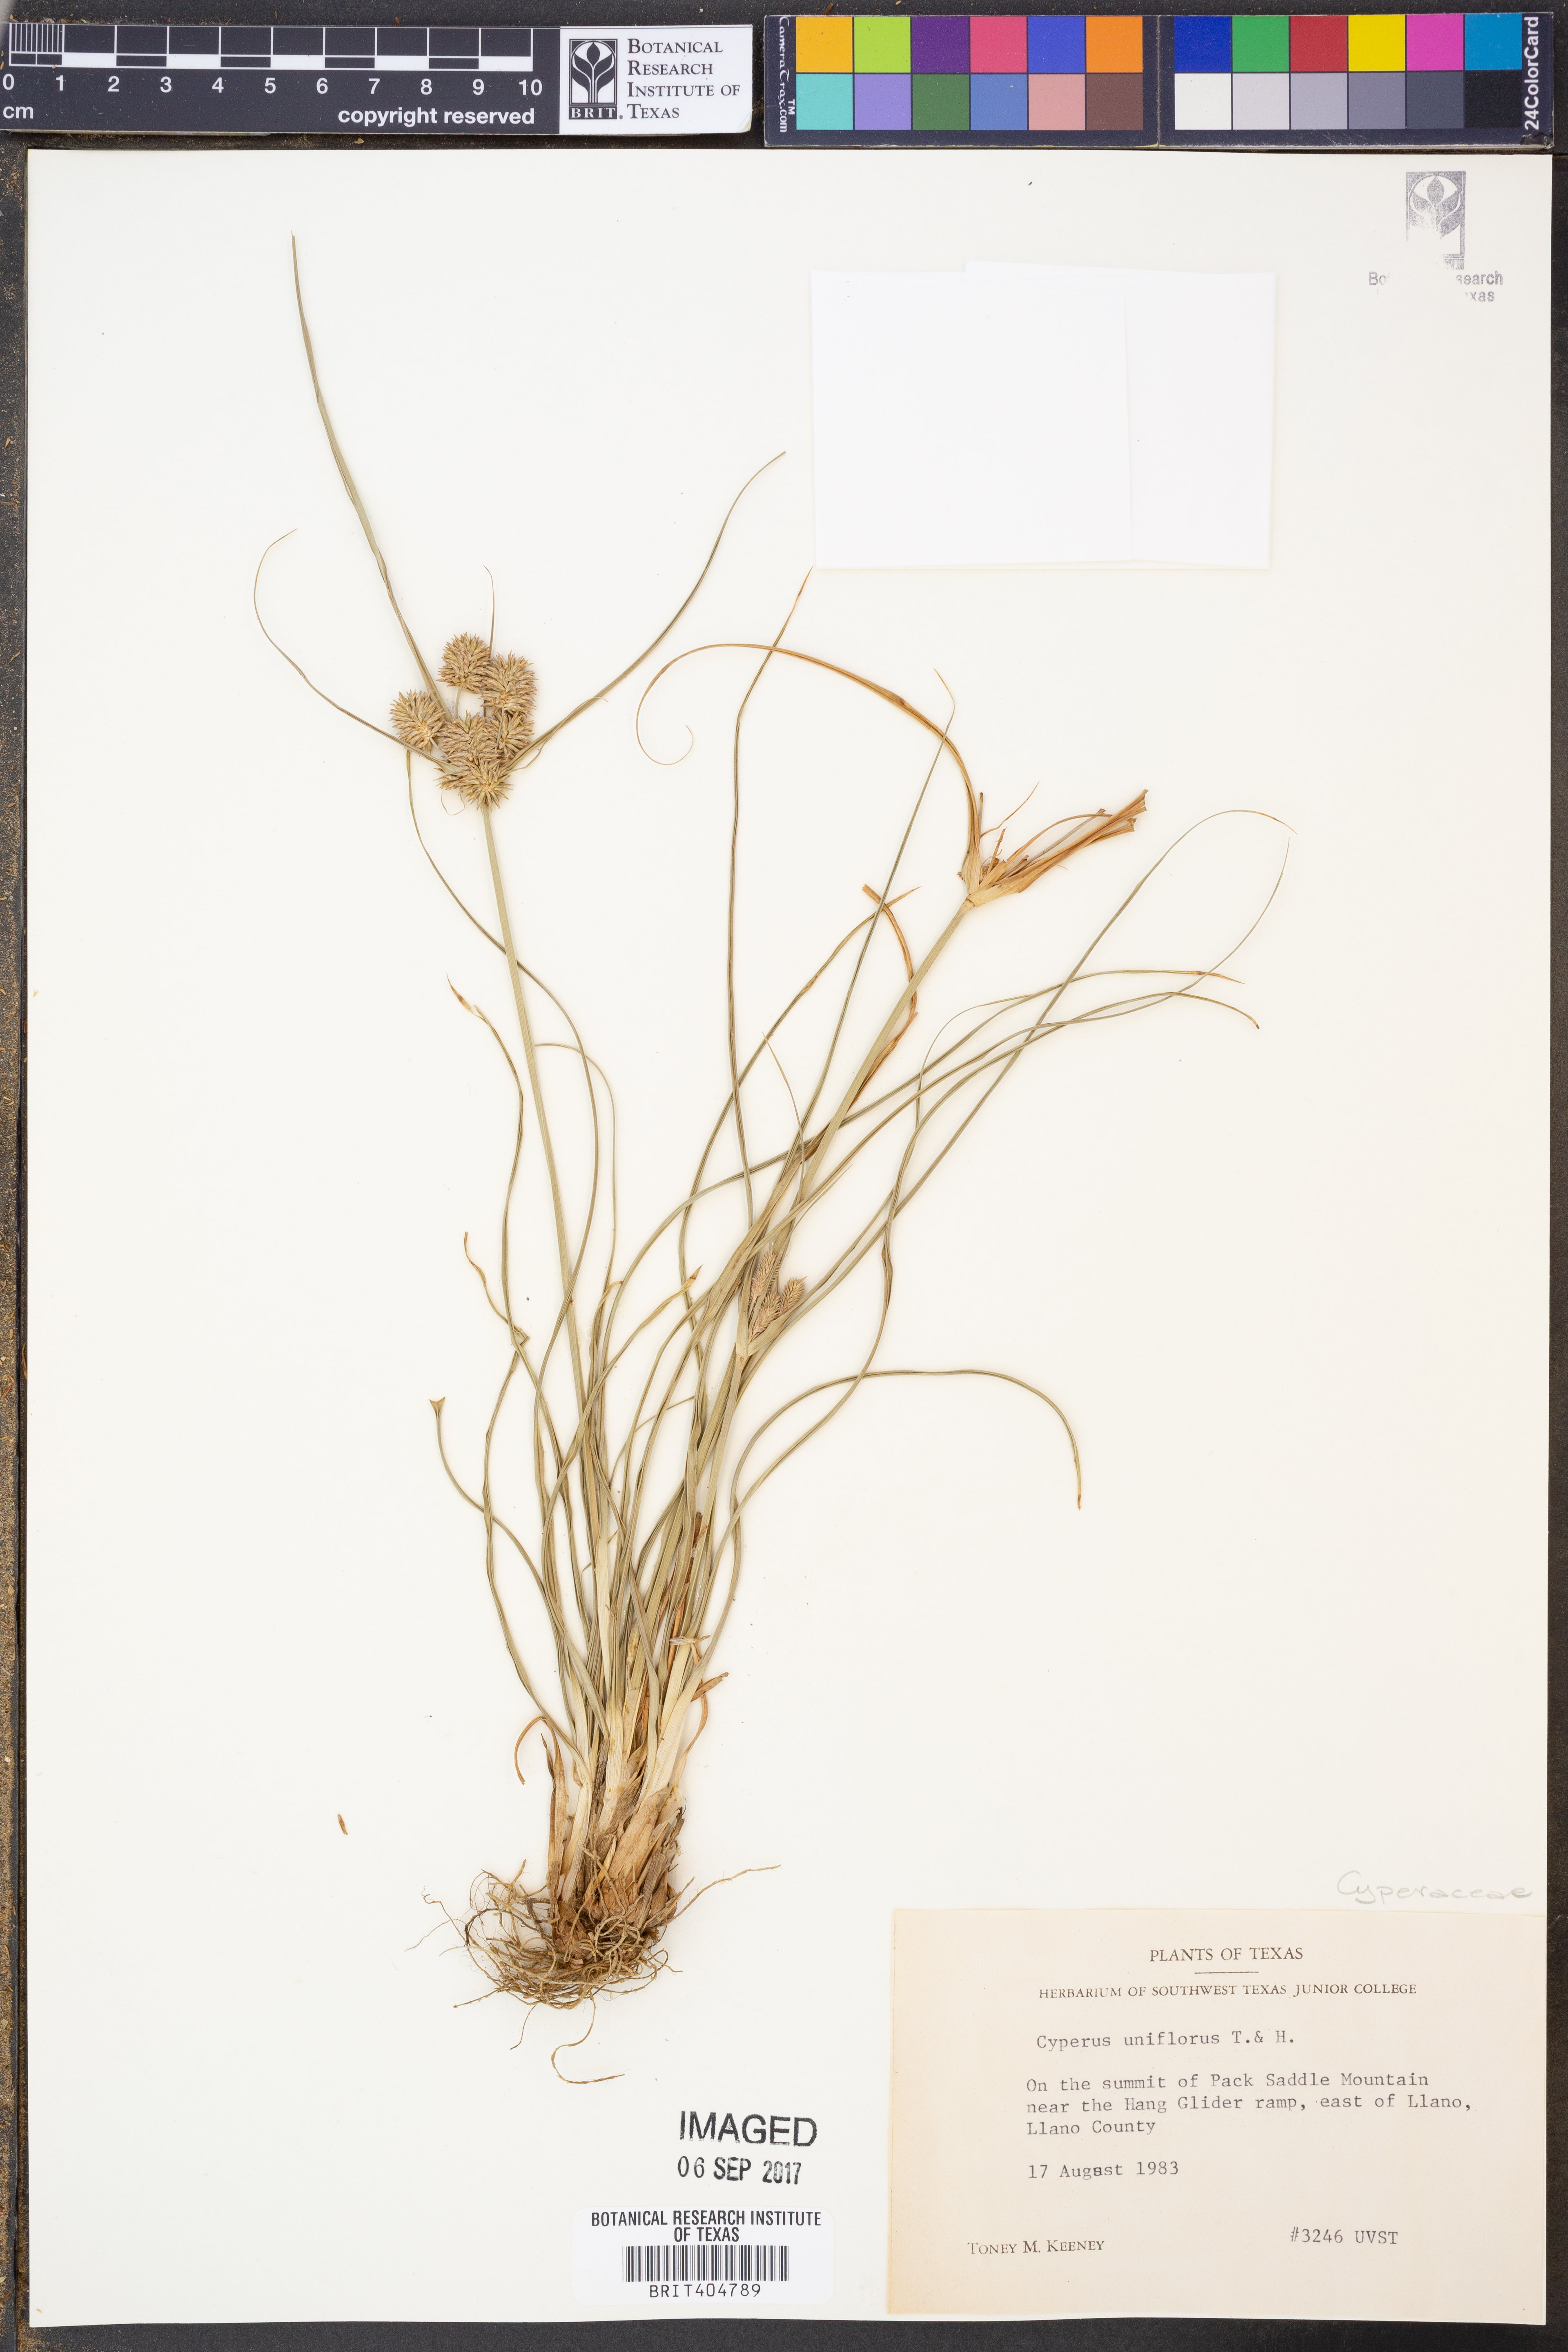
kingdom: Plantae
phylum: Tracheophyta
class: Liliopsida
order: Poales
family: Cyperaceae
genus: Cyperus
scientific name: Cyperus retroflexus
